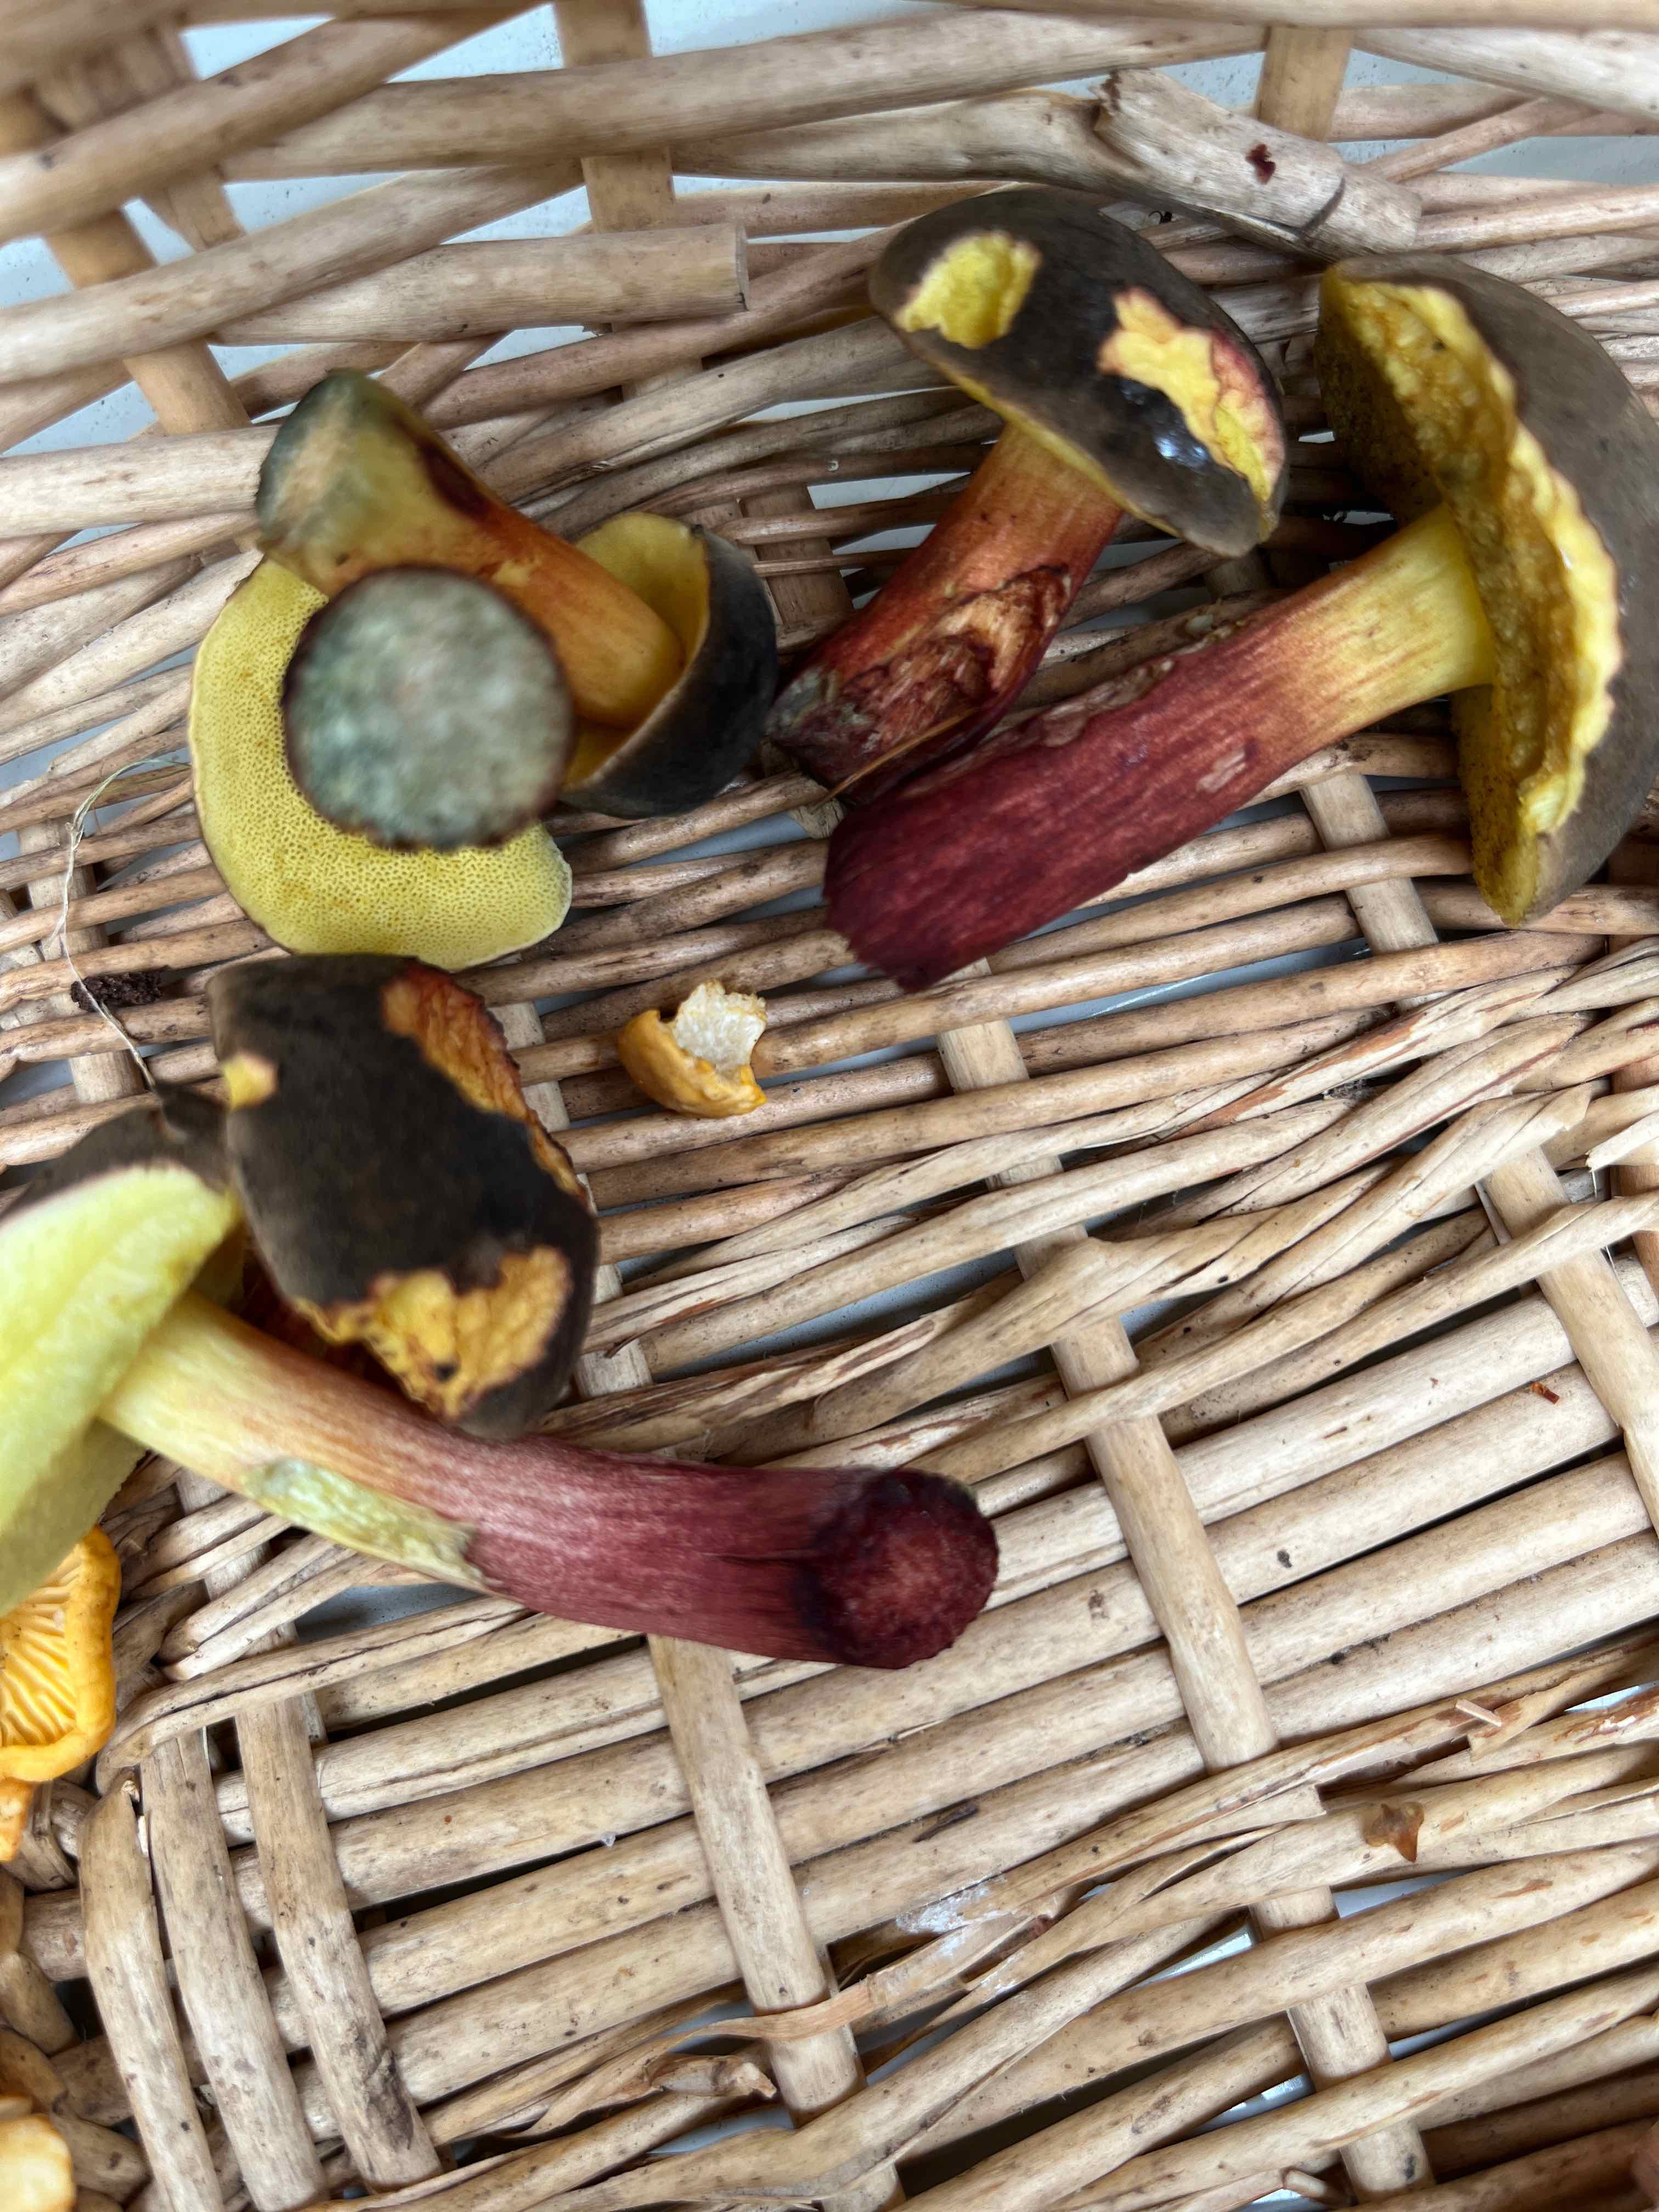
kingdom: Fungi
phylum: Basidiomycota
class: Agaricomycetes
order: Boletales
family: Boletaceae
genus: Xerocomellus
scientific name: Xerocomellus cisalpinus
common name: finsprukken rørhat
